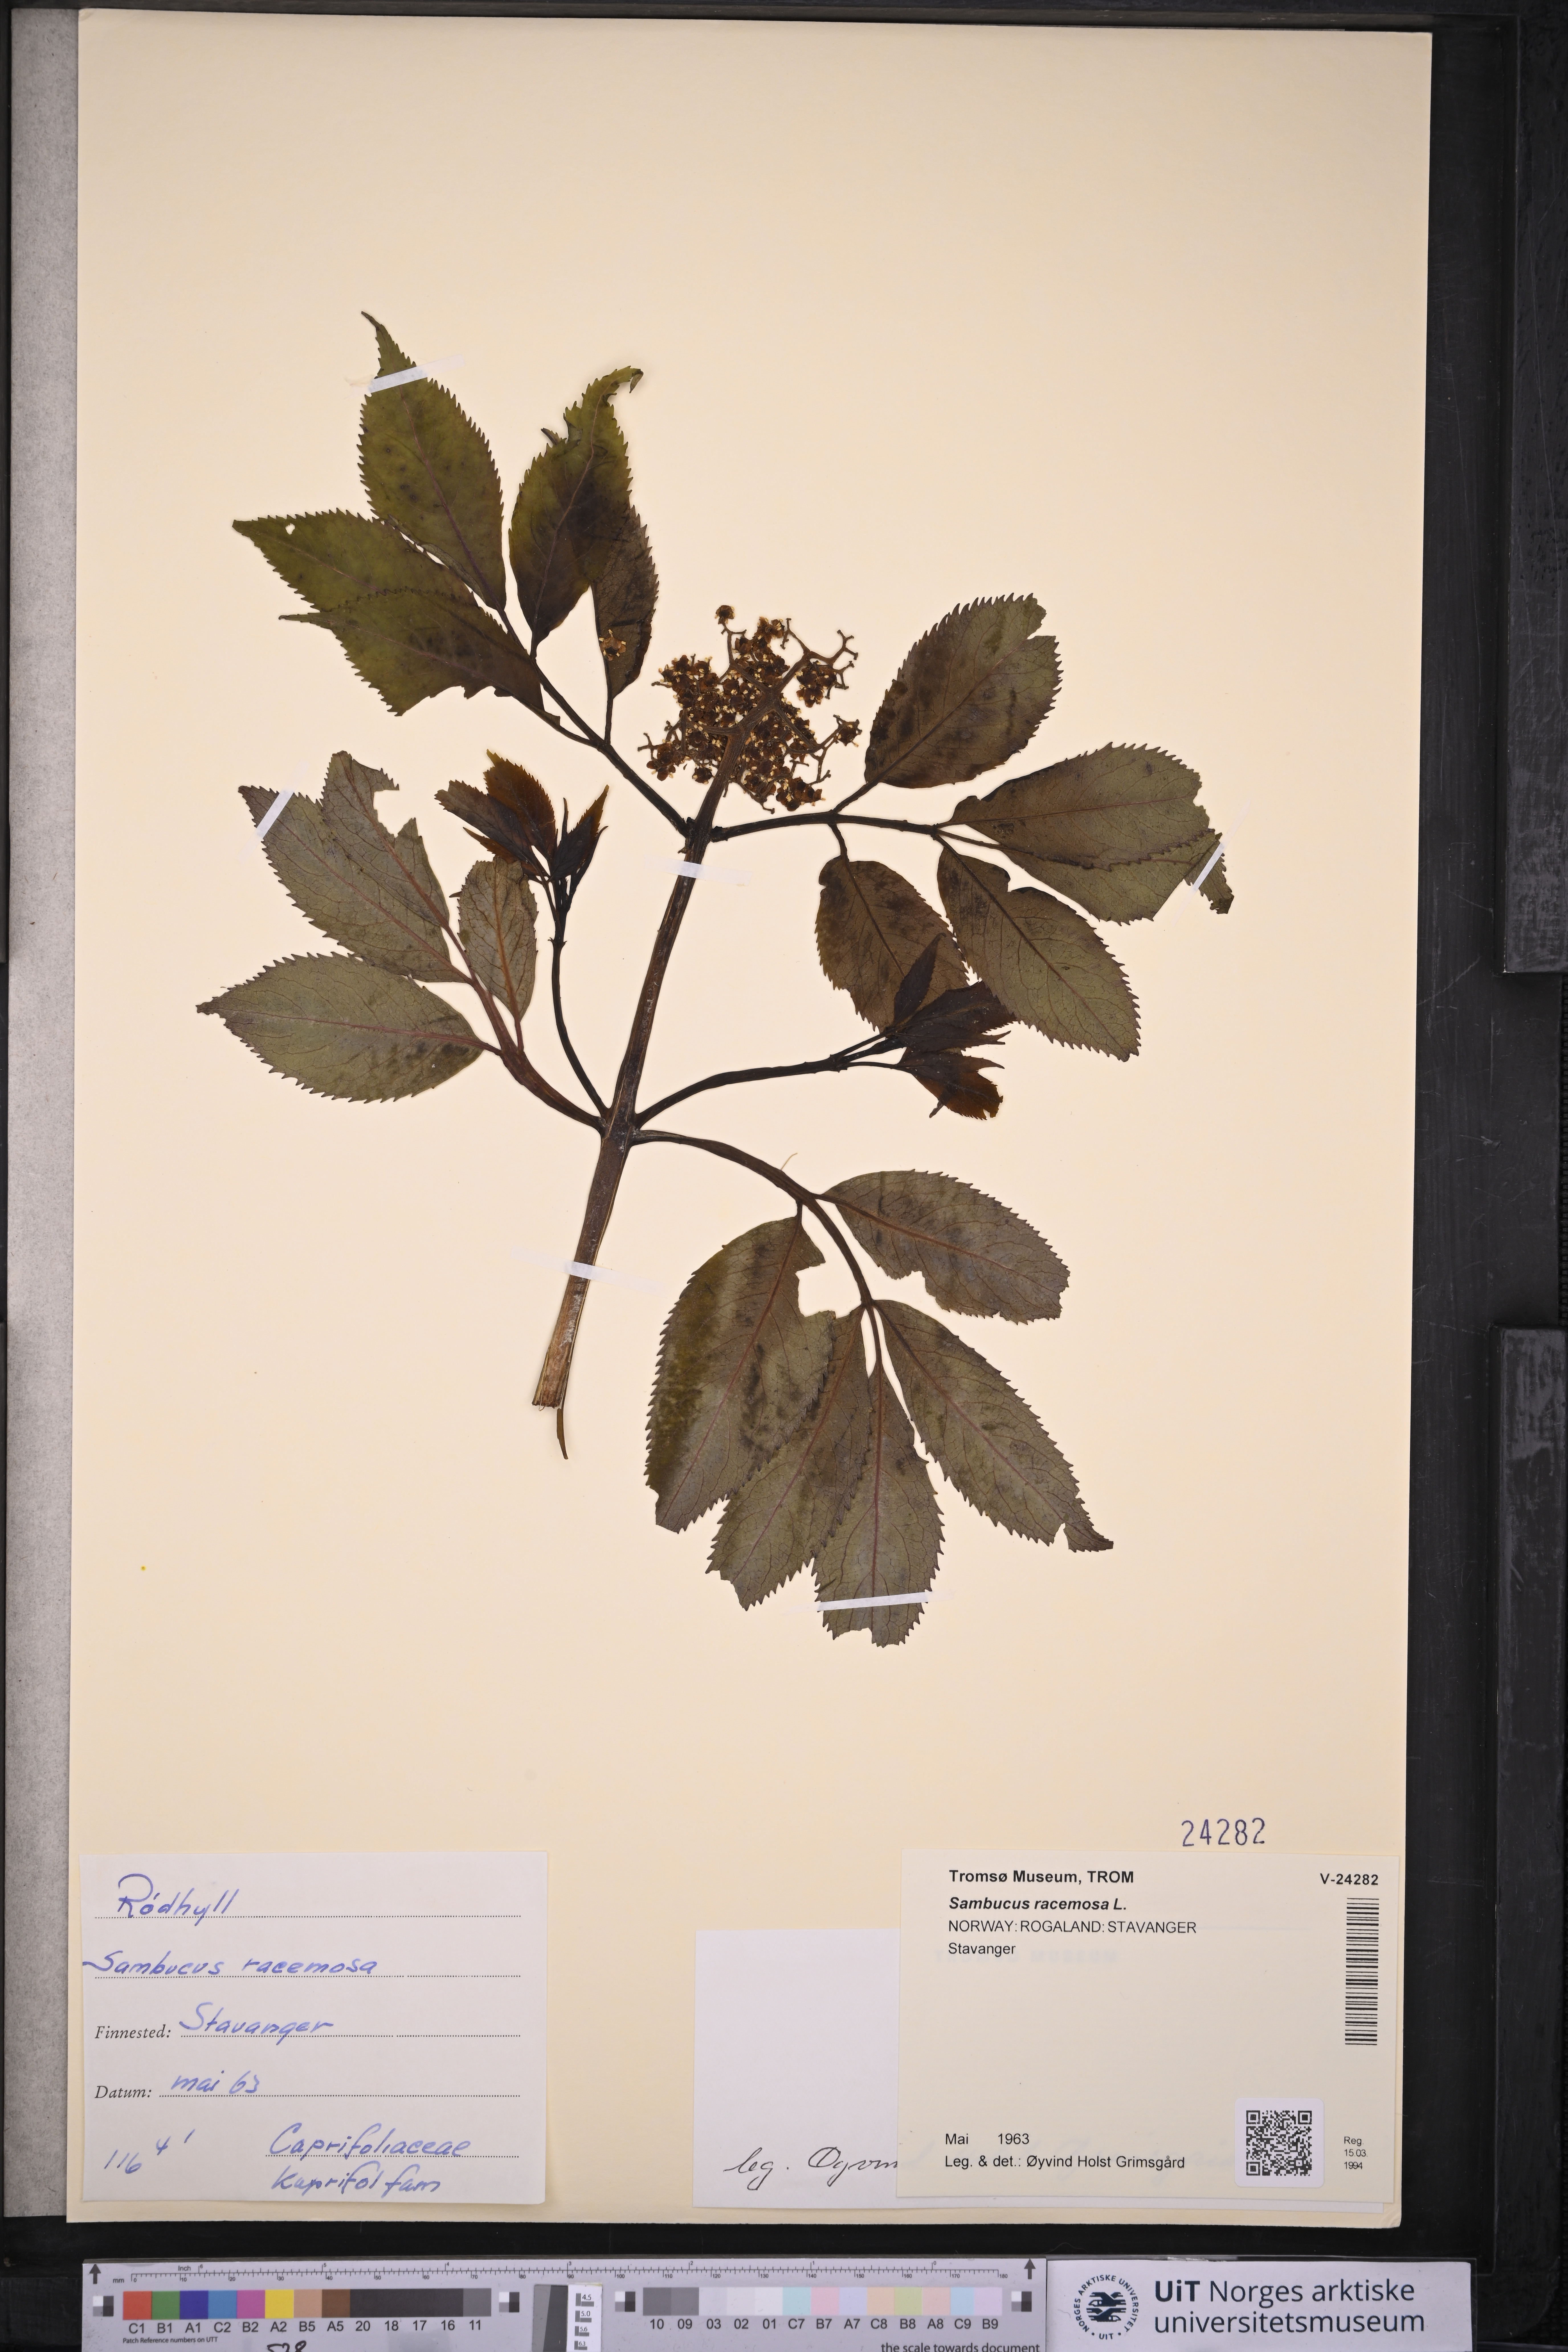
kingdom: Plantae
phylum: Tracheophyta
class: Magnoliopsida
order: Dipsacales
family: Viburnaceae
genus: Sambucus
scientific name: Sambucus racemosa
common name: Red-berried elder
